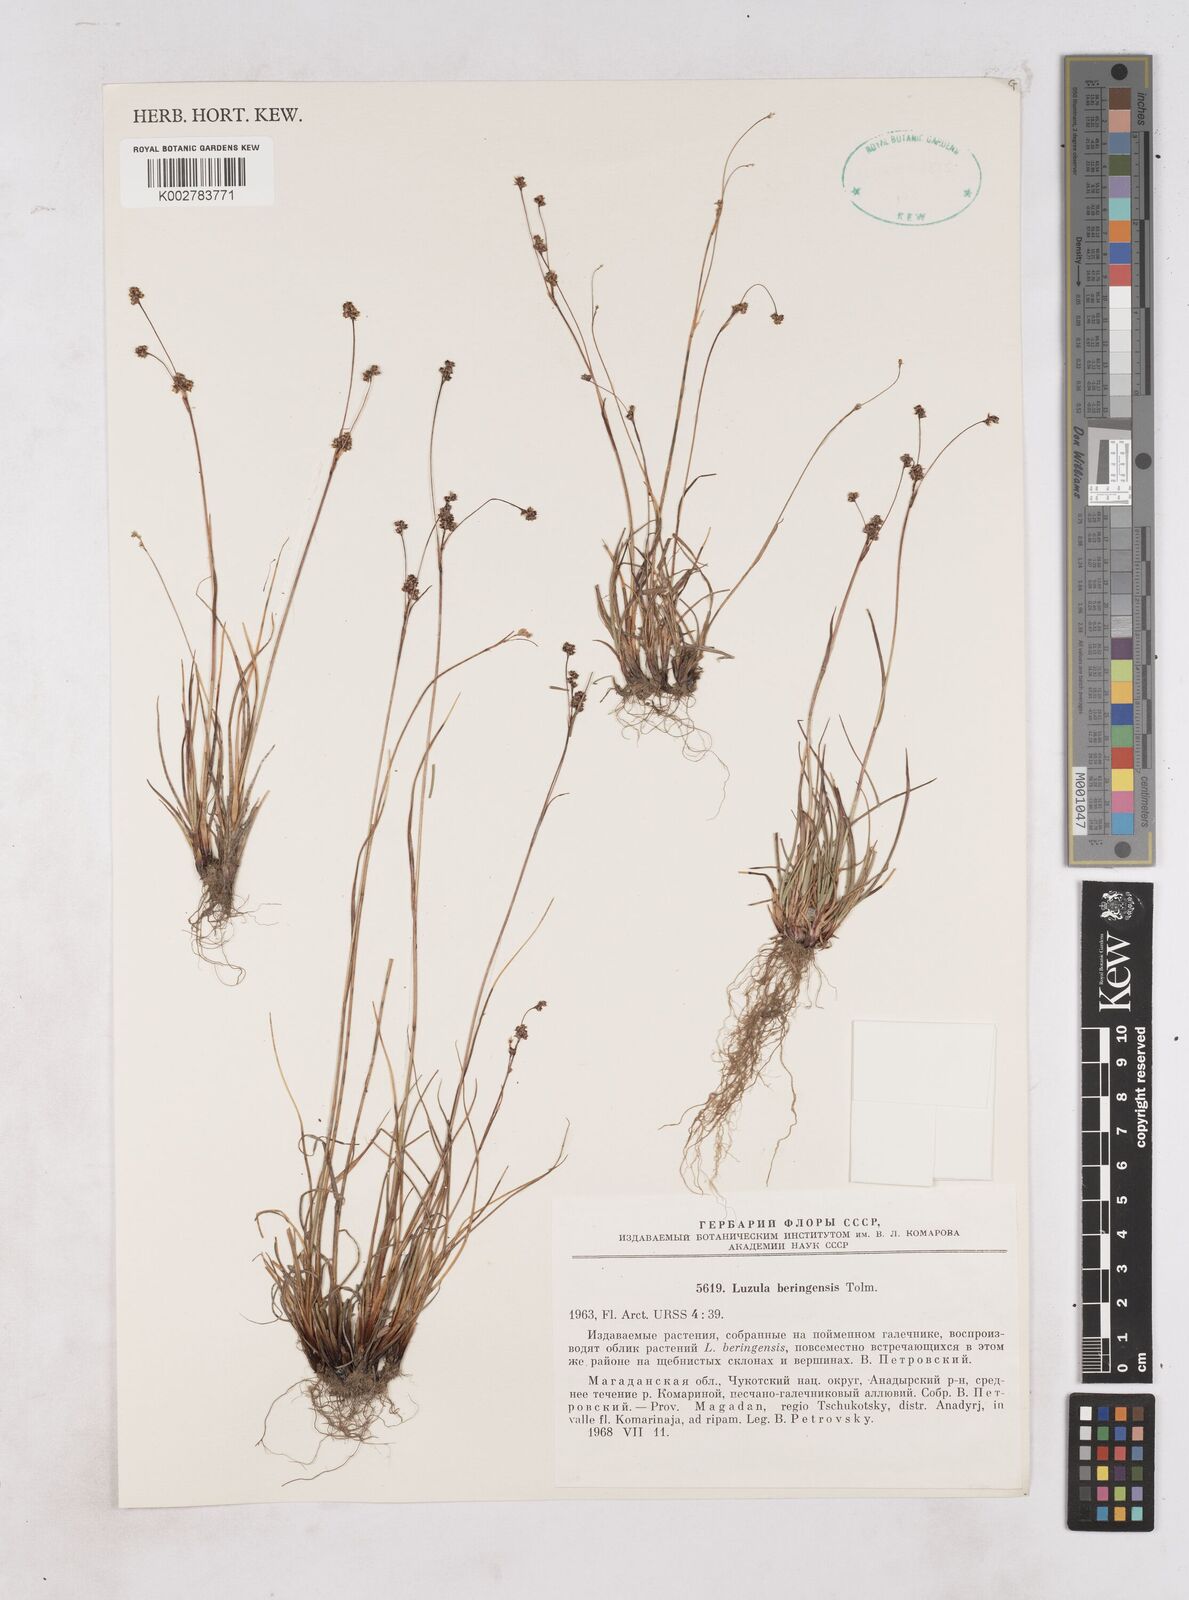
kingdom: Plantae
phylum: Tracheophyta
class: Liliopsida
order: Poales
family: Juncaceae
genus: Luzula
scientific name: Luzula arcuata
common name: Curved wood-rush
